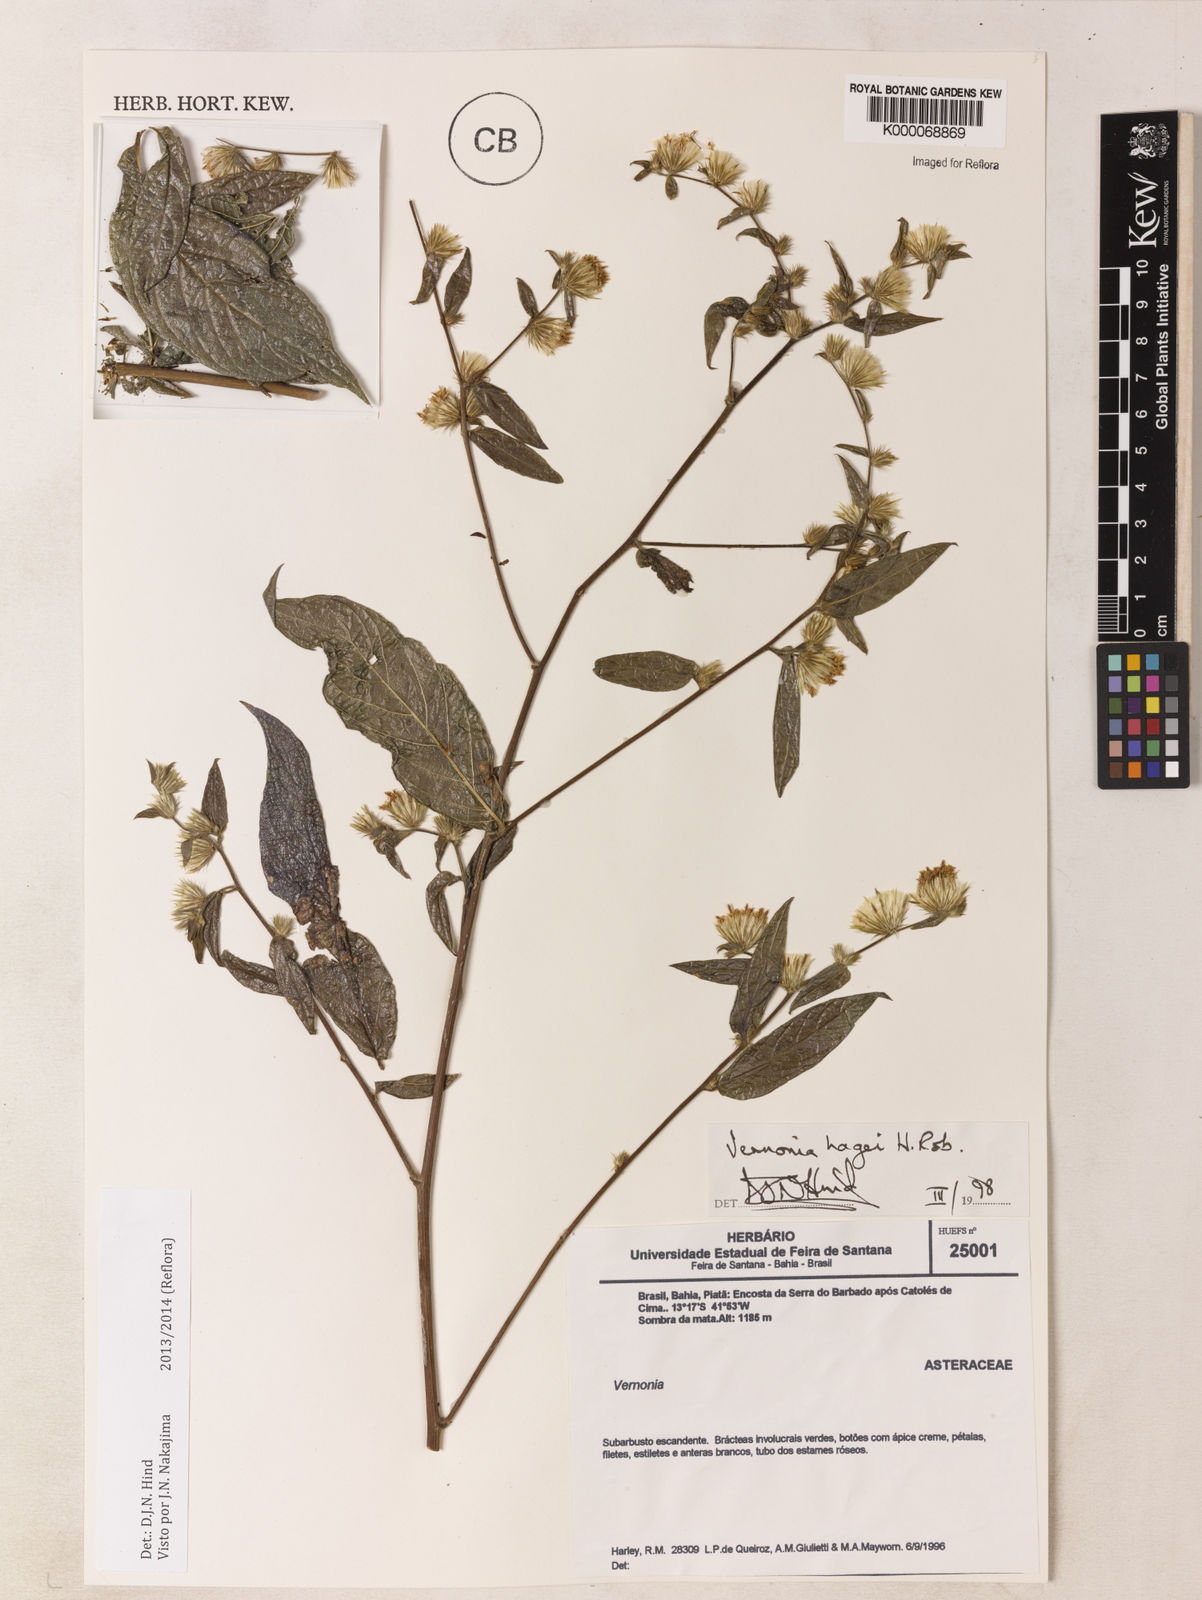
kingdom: Plantae
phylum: Tracheophyta
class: Magnoliopsida
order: Asterales
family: Asteraceae
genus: Lepidaploa
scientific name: Lepidaploa hagei
